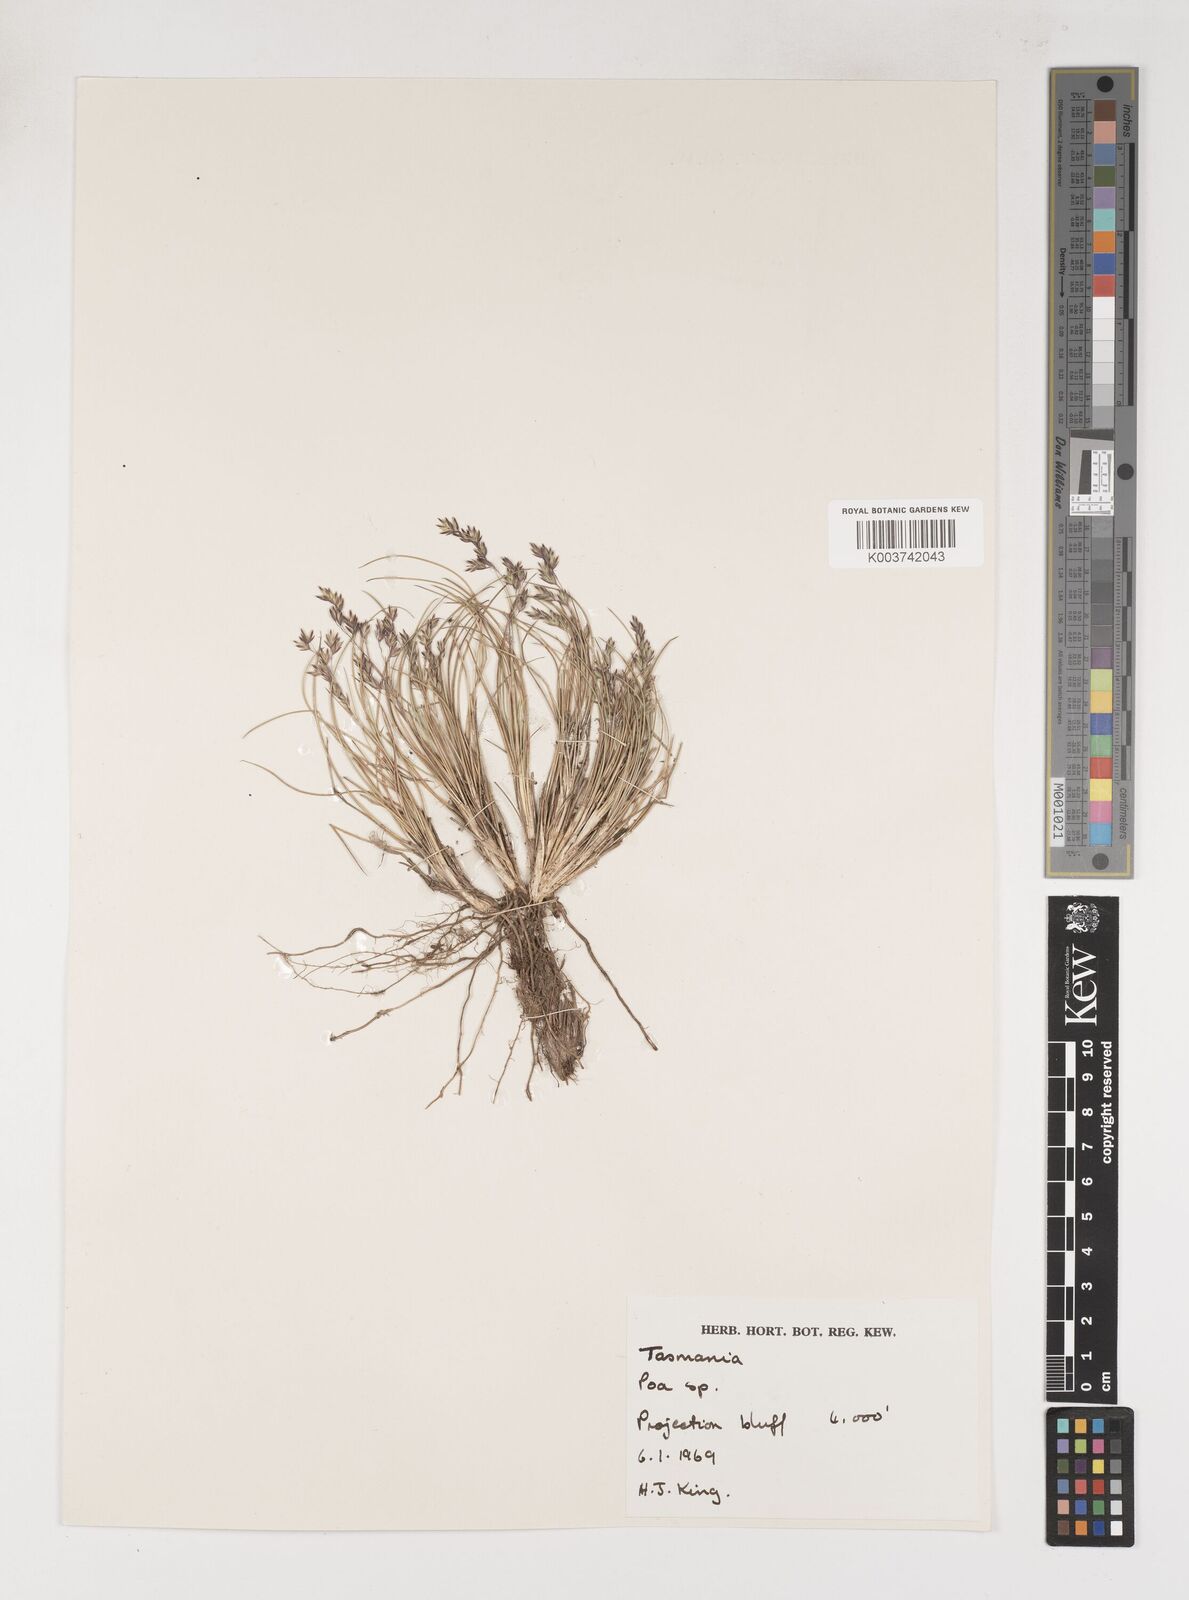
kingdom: Plantae
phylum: Tracheophyta
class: Liliopsida
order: Poales
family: Poaceae
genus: Poa
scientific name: Poa gunnii
